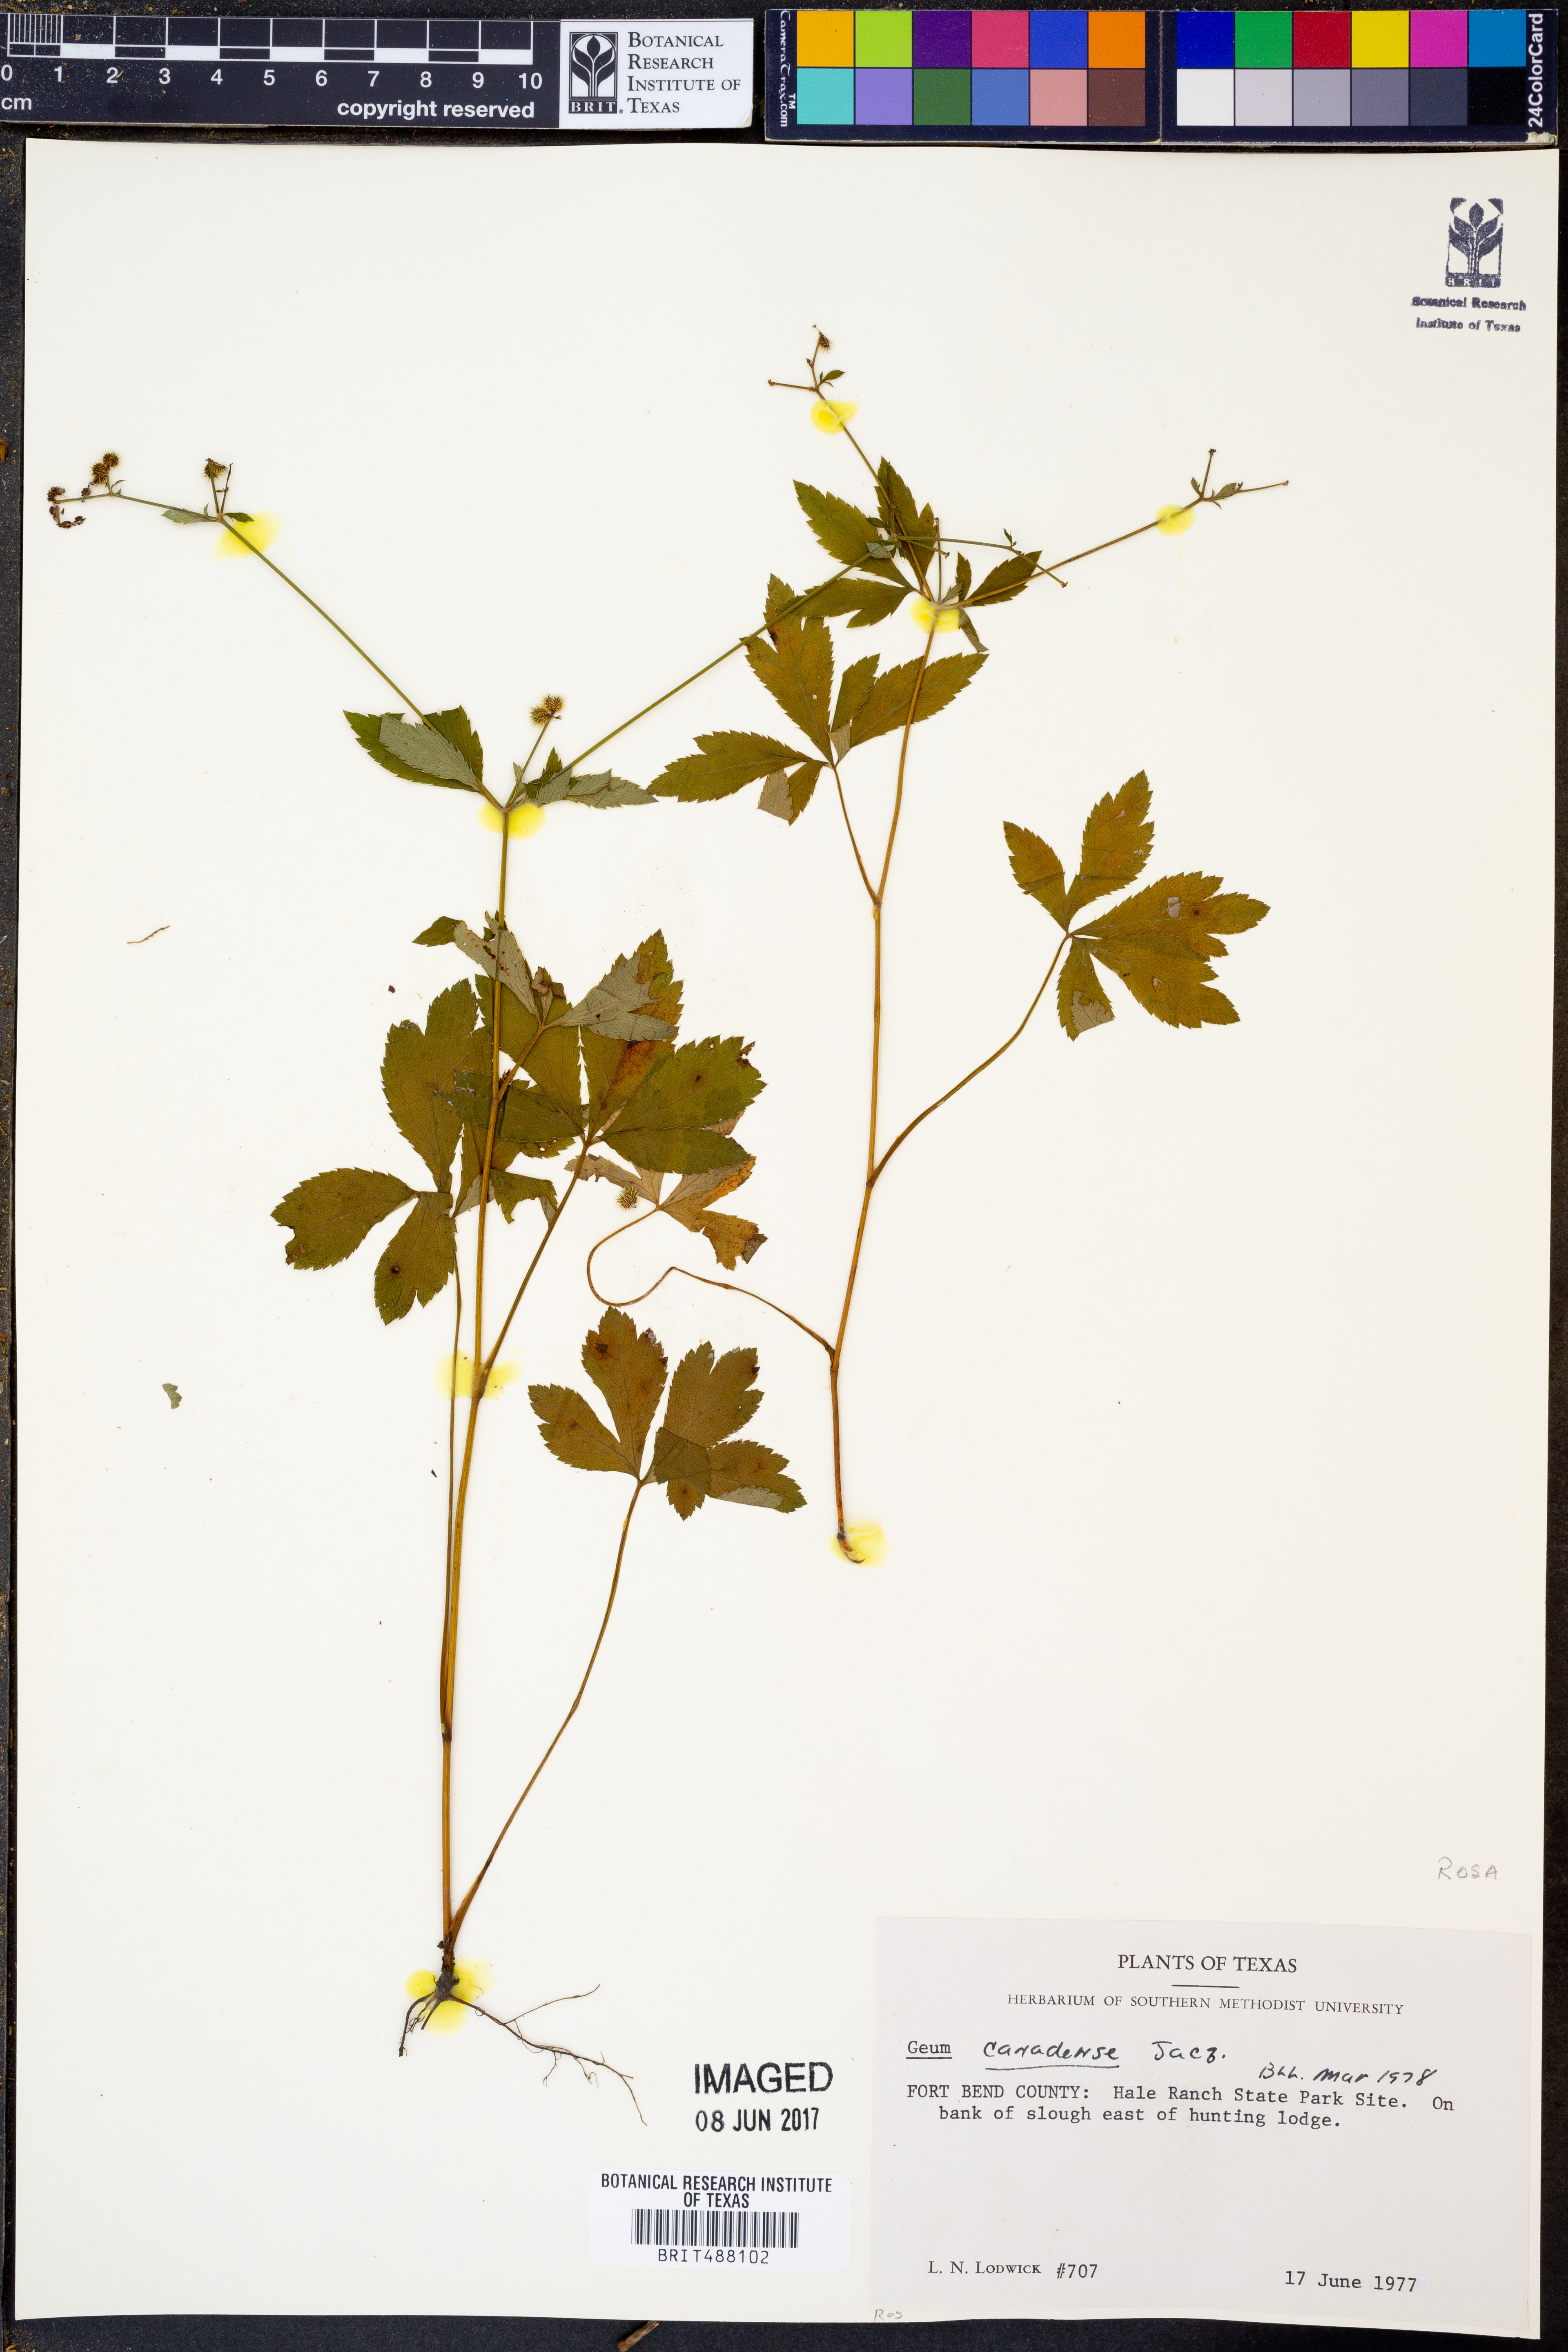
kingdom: Plantae
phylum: Tracheophyta
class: Magnoliopsida
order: Rosales
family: Rosaceae
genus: Geum
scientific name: Geum canadense
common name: White avens
